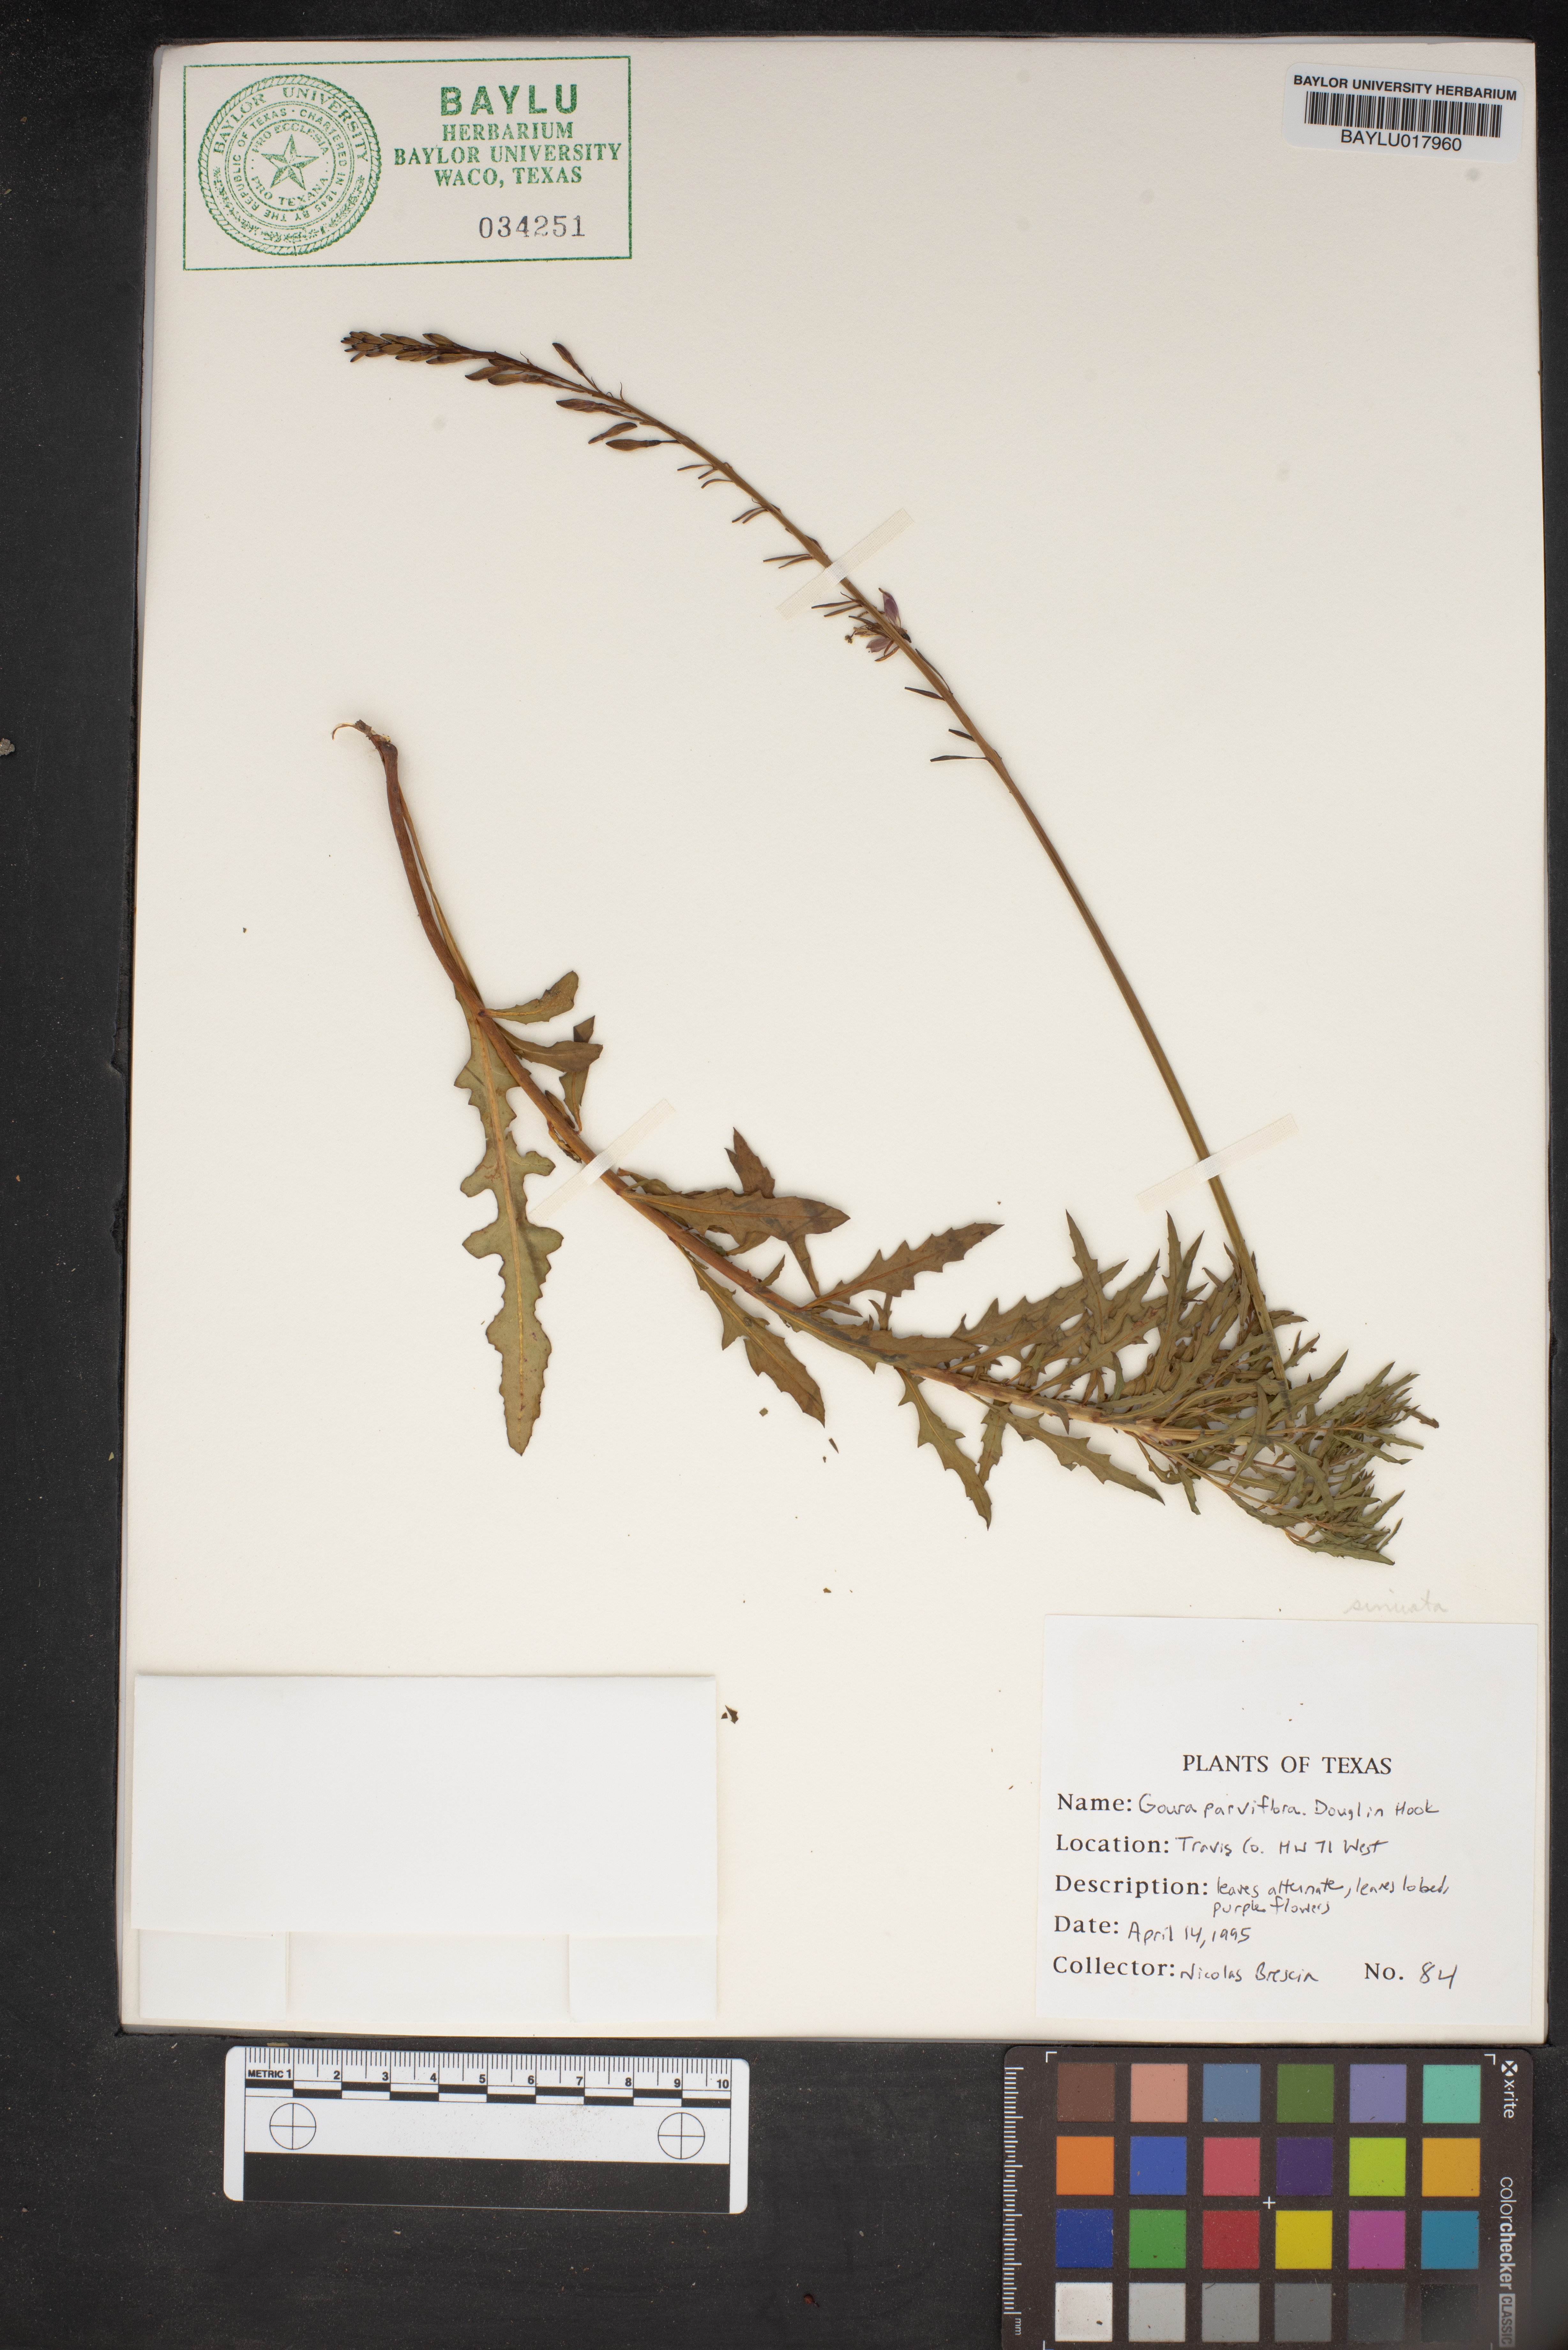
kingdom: Plantae
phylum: Tracheophyta
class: Magnoliopsida
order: Myrtales
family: Onagraceae
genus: Oenothera
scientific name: Oenothera curtiflora
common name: Velvetweed
